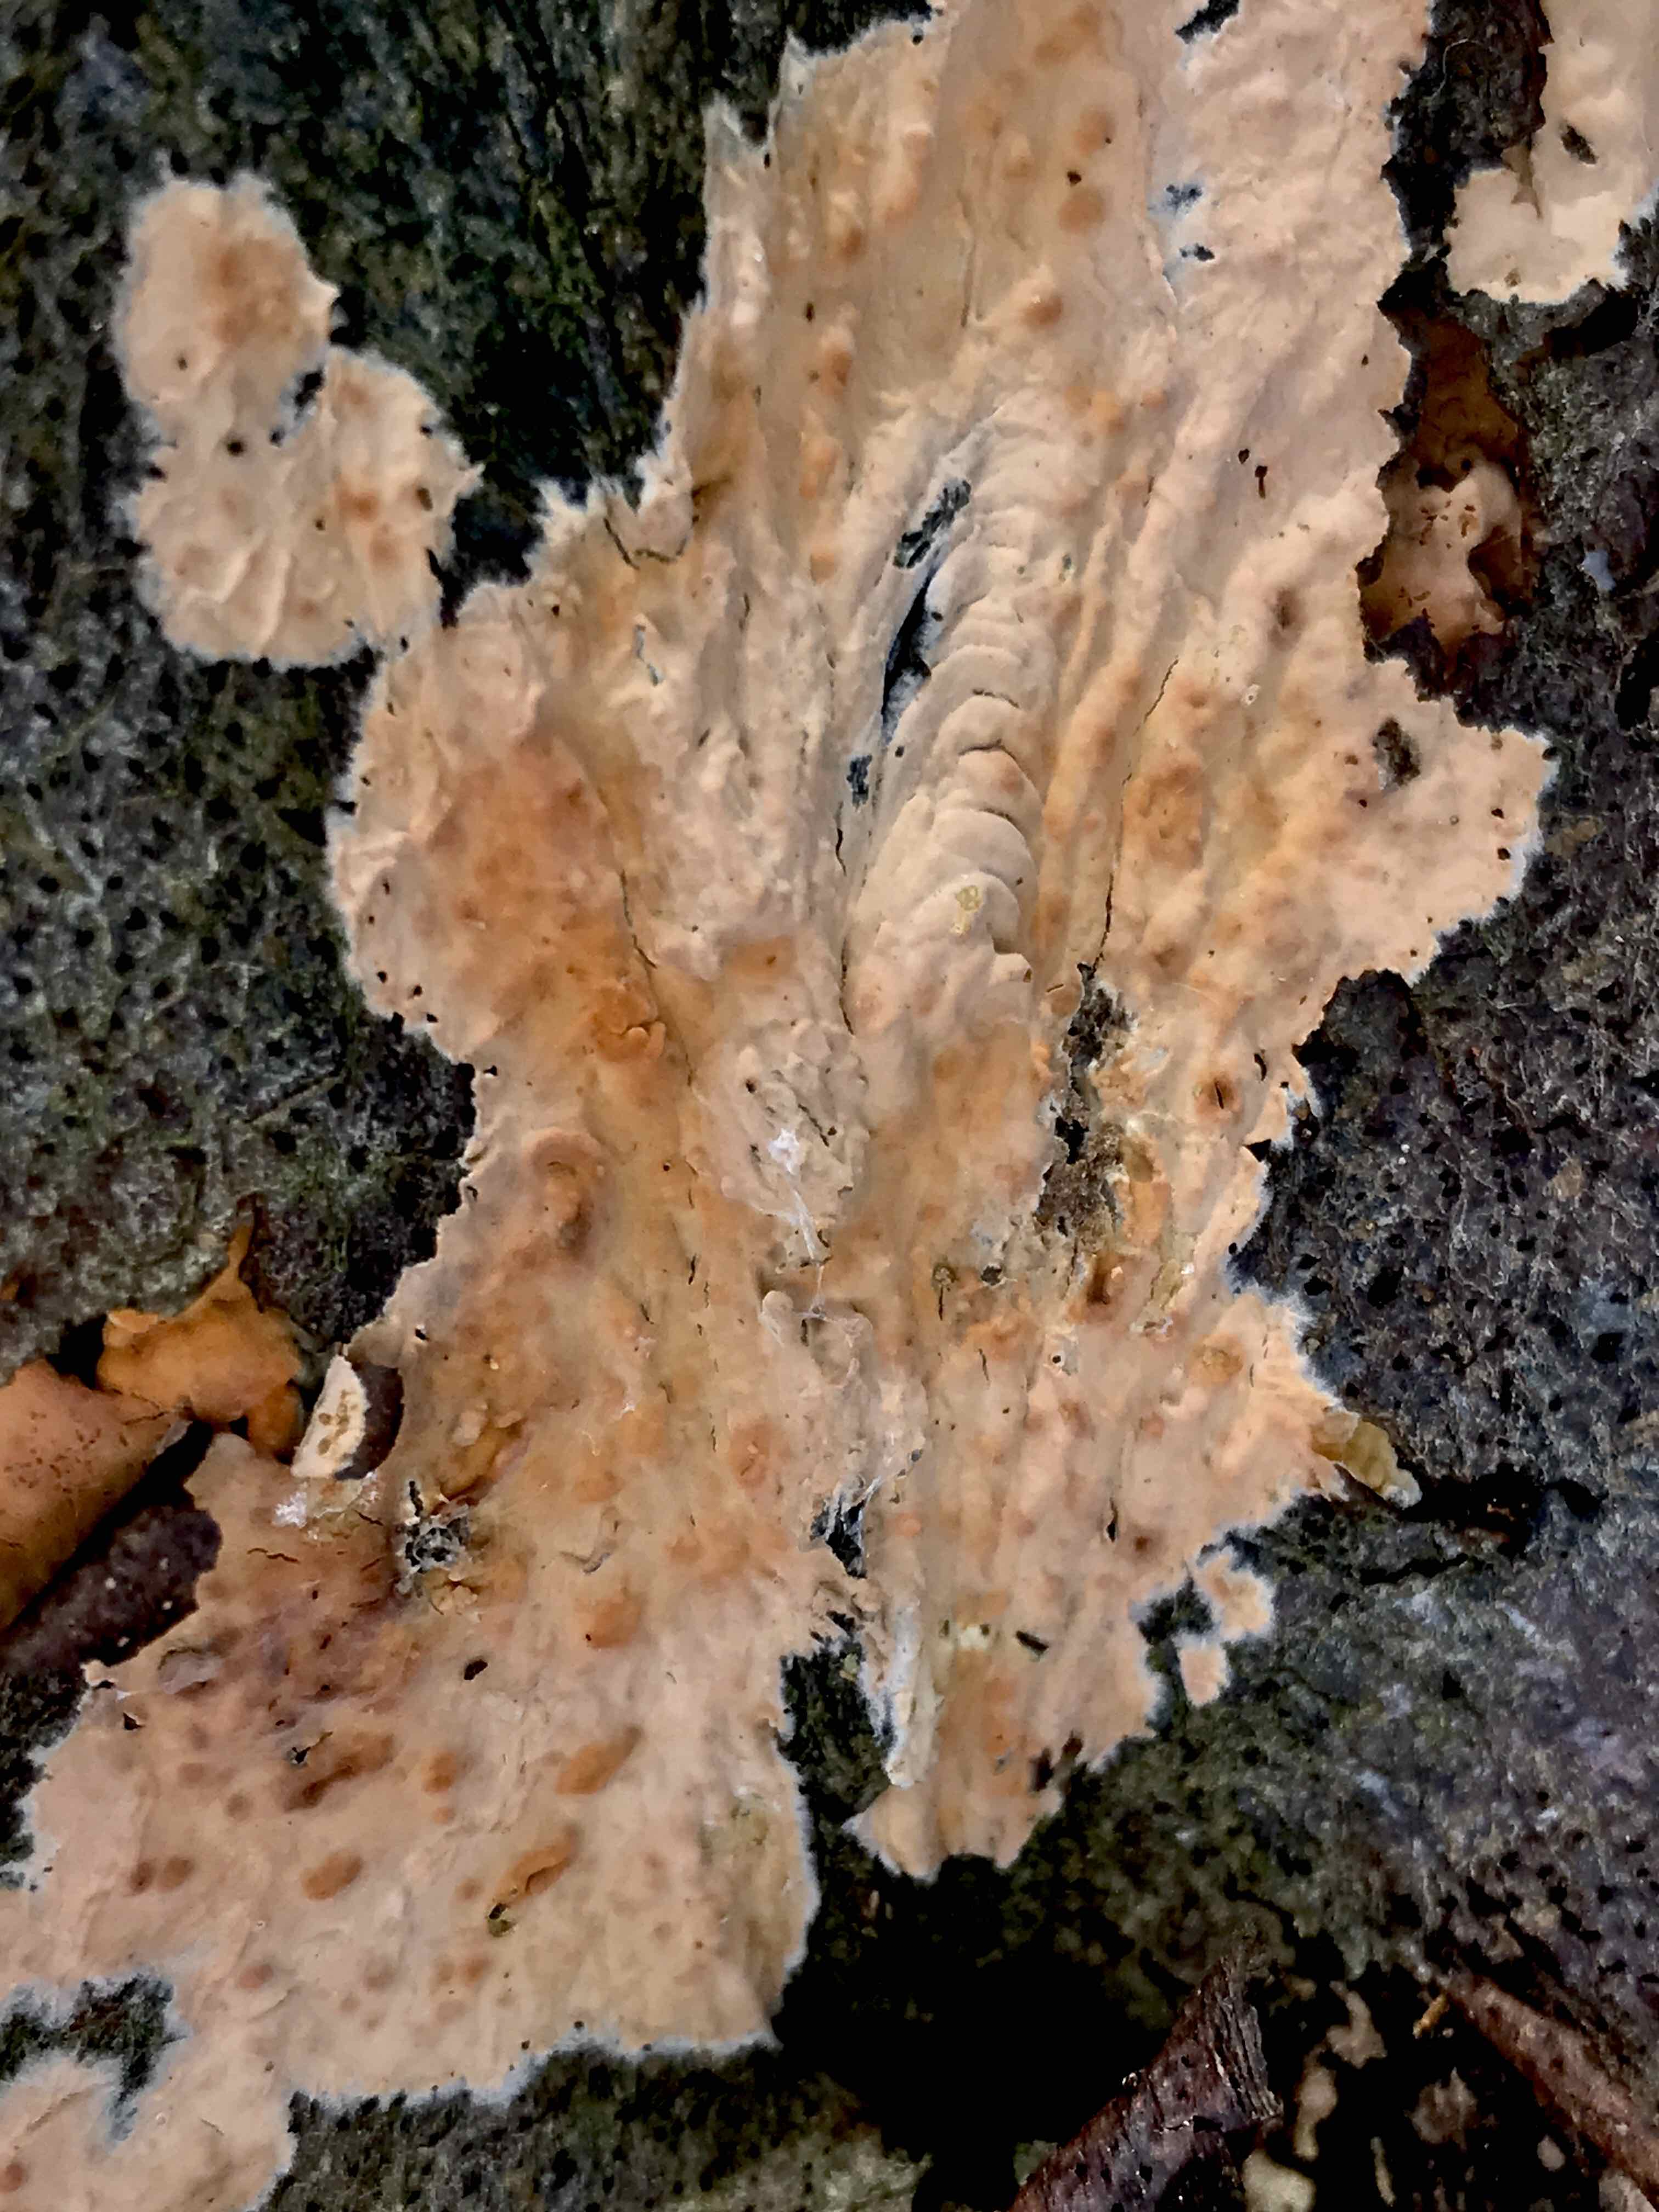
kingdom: Fungi
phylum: Basidiomycota
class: Agaricomycetes
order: Russulales
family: Peniophoraceae
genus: Peniophora
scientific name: Peniophora incarnata
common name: laksefarvet voksskind
